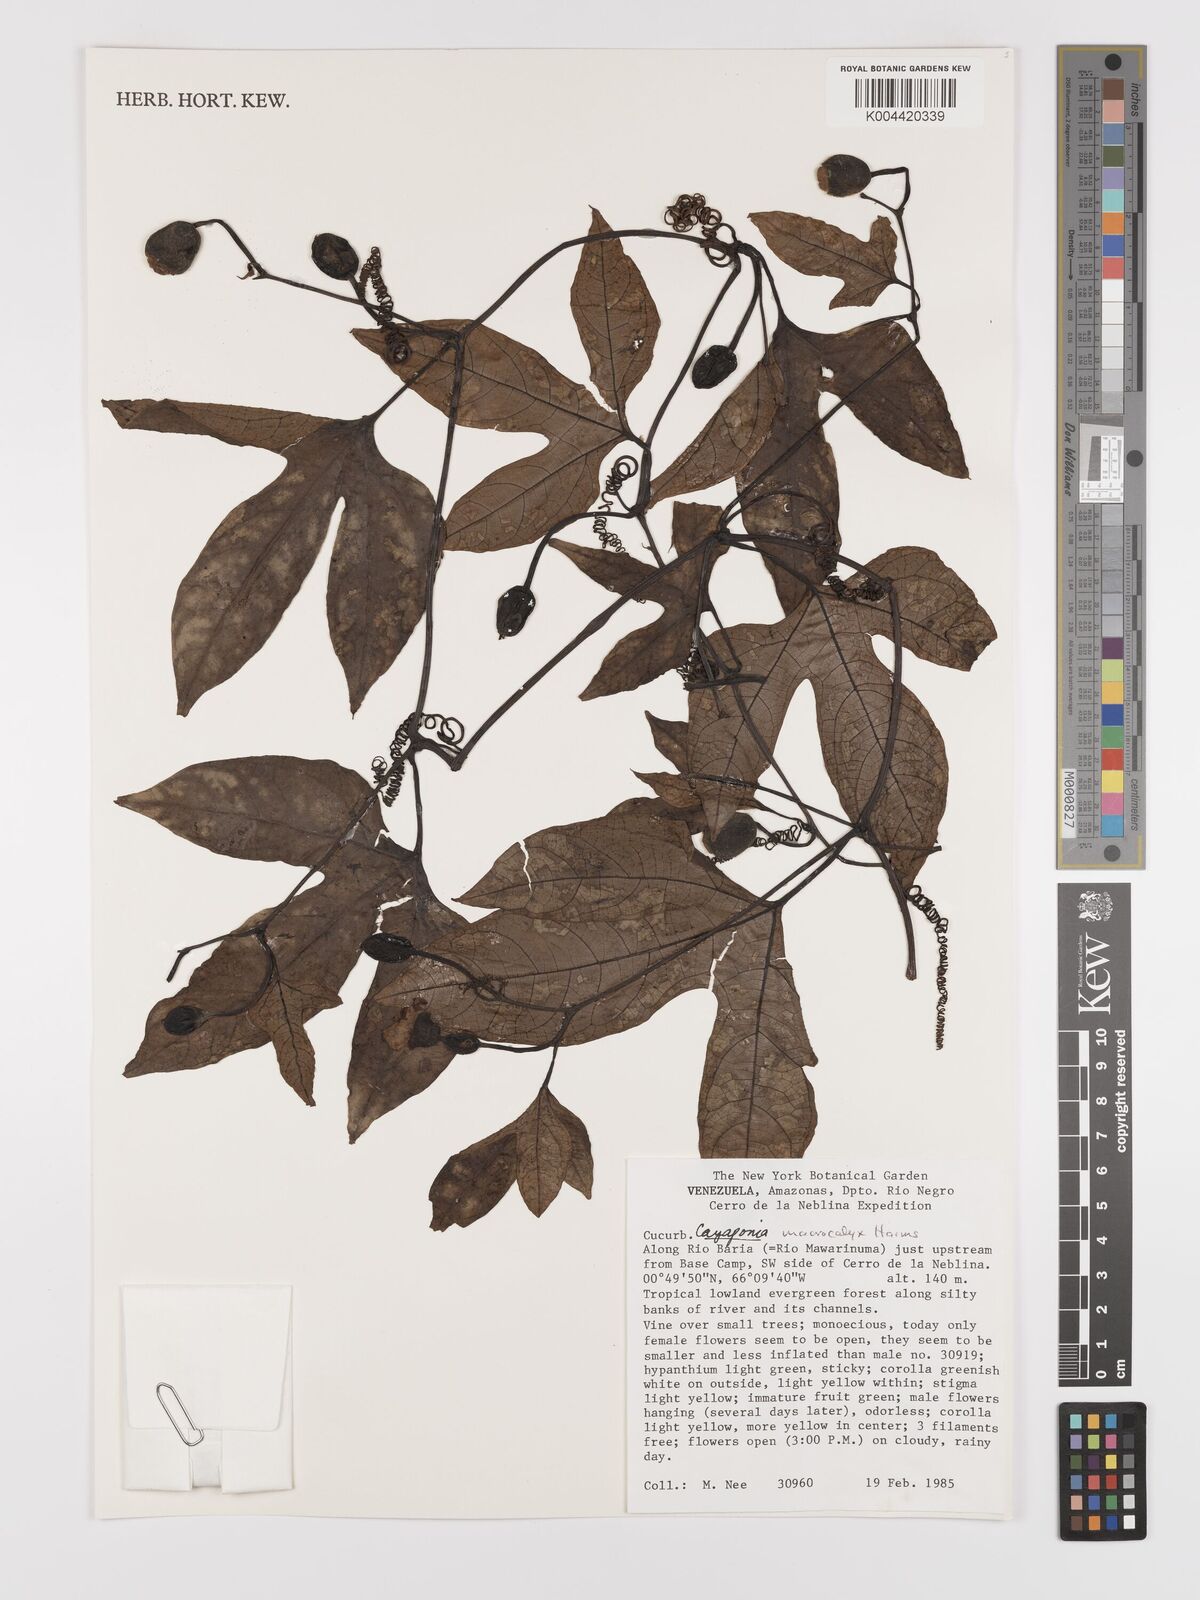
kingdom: Plantae
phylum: Tracheophyta
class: Magnoliopsida
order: Cucurbitales
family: Cucurbitaceae
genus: Cayaponia
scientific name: Cayaponia macrocalyx
